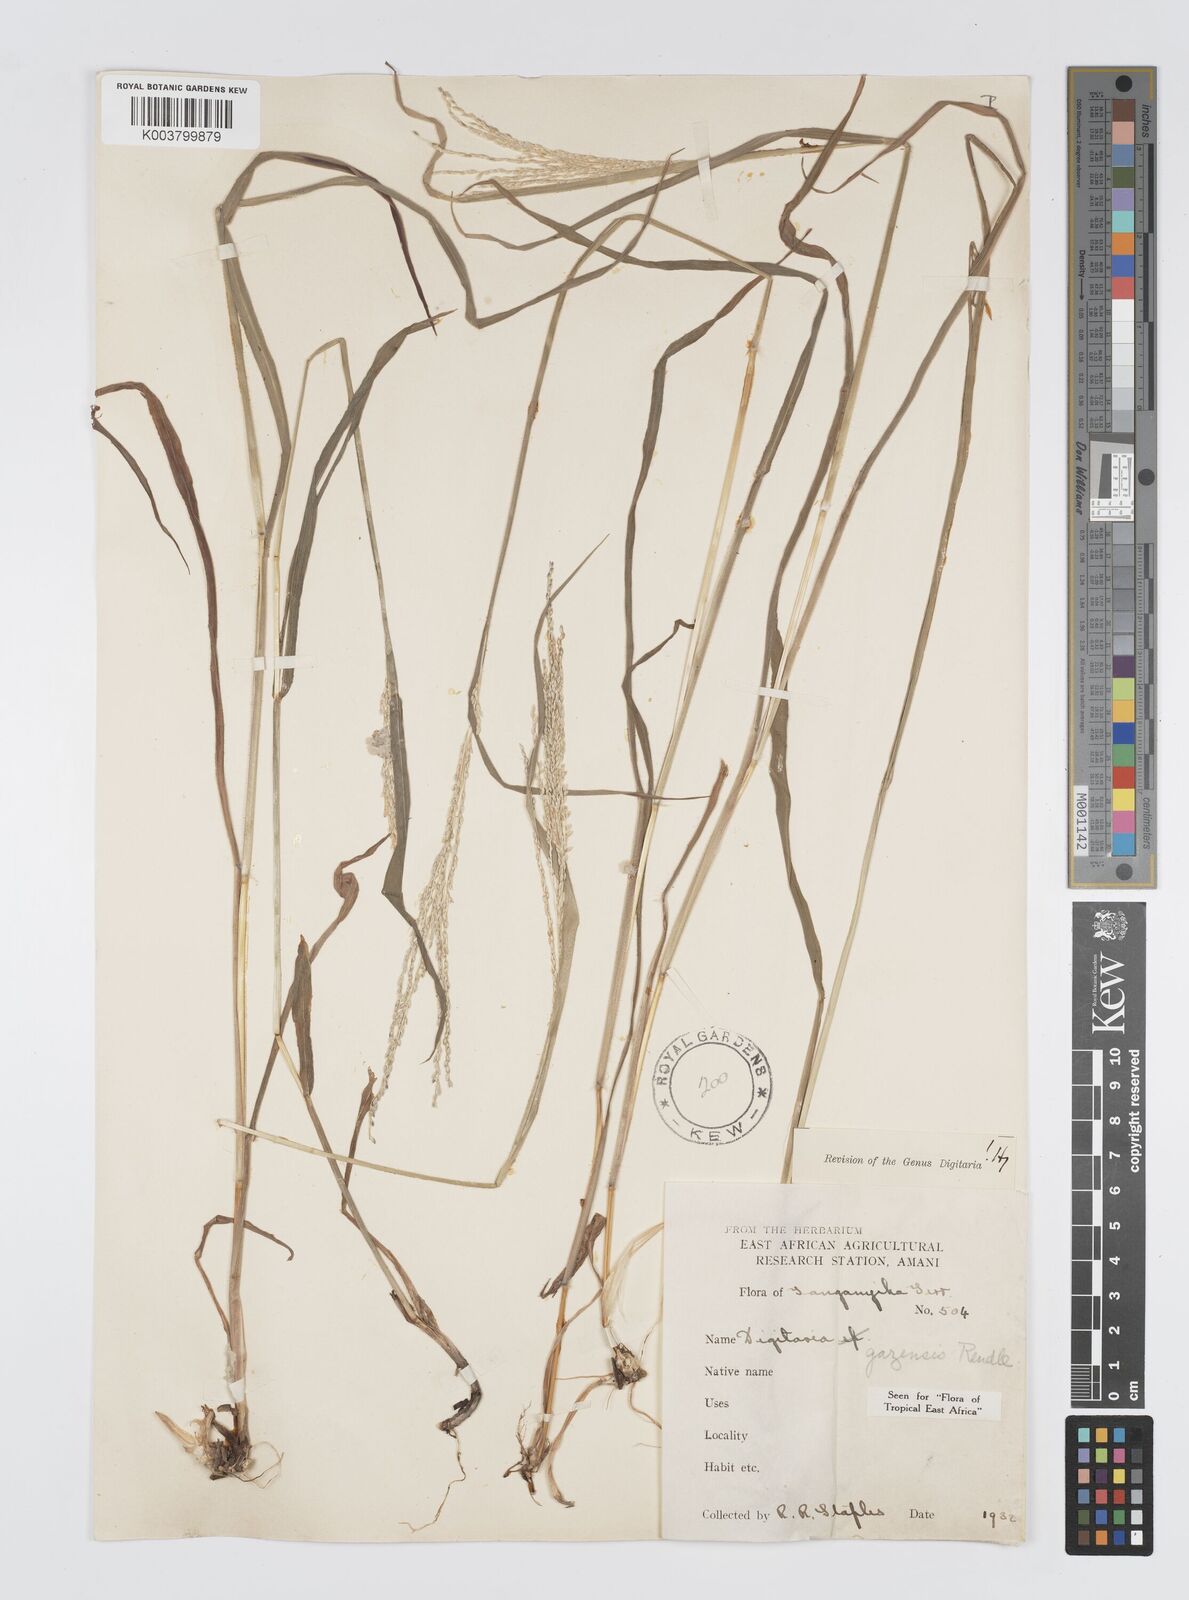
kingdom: Plantae
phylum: Tracheophyta
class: Liliopsida
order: Poales
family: Poaceae
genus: Digitaria
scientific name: Digitaria gazensis
